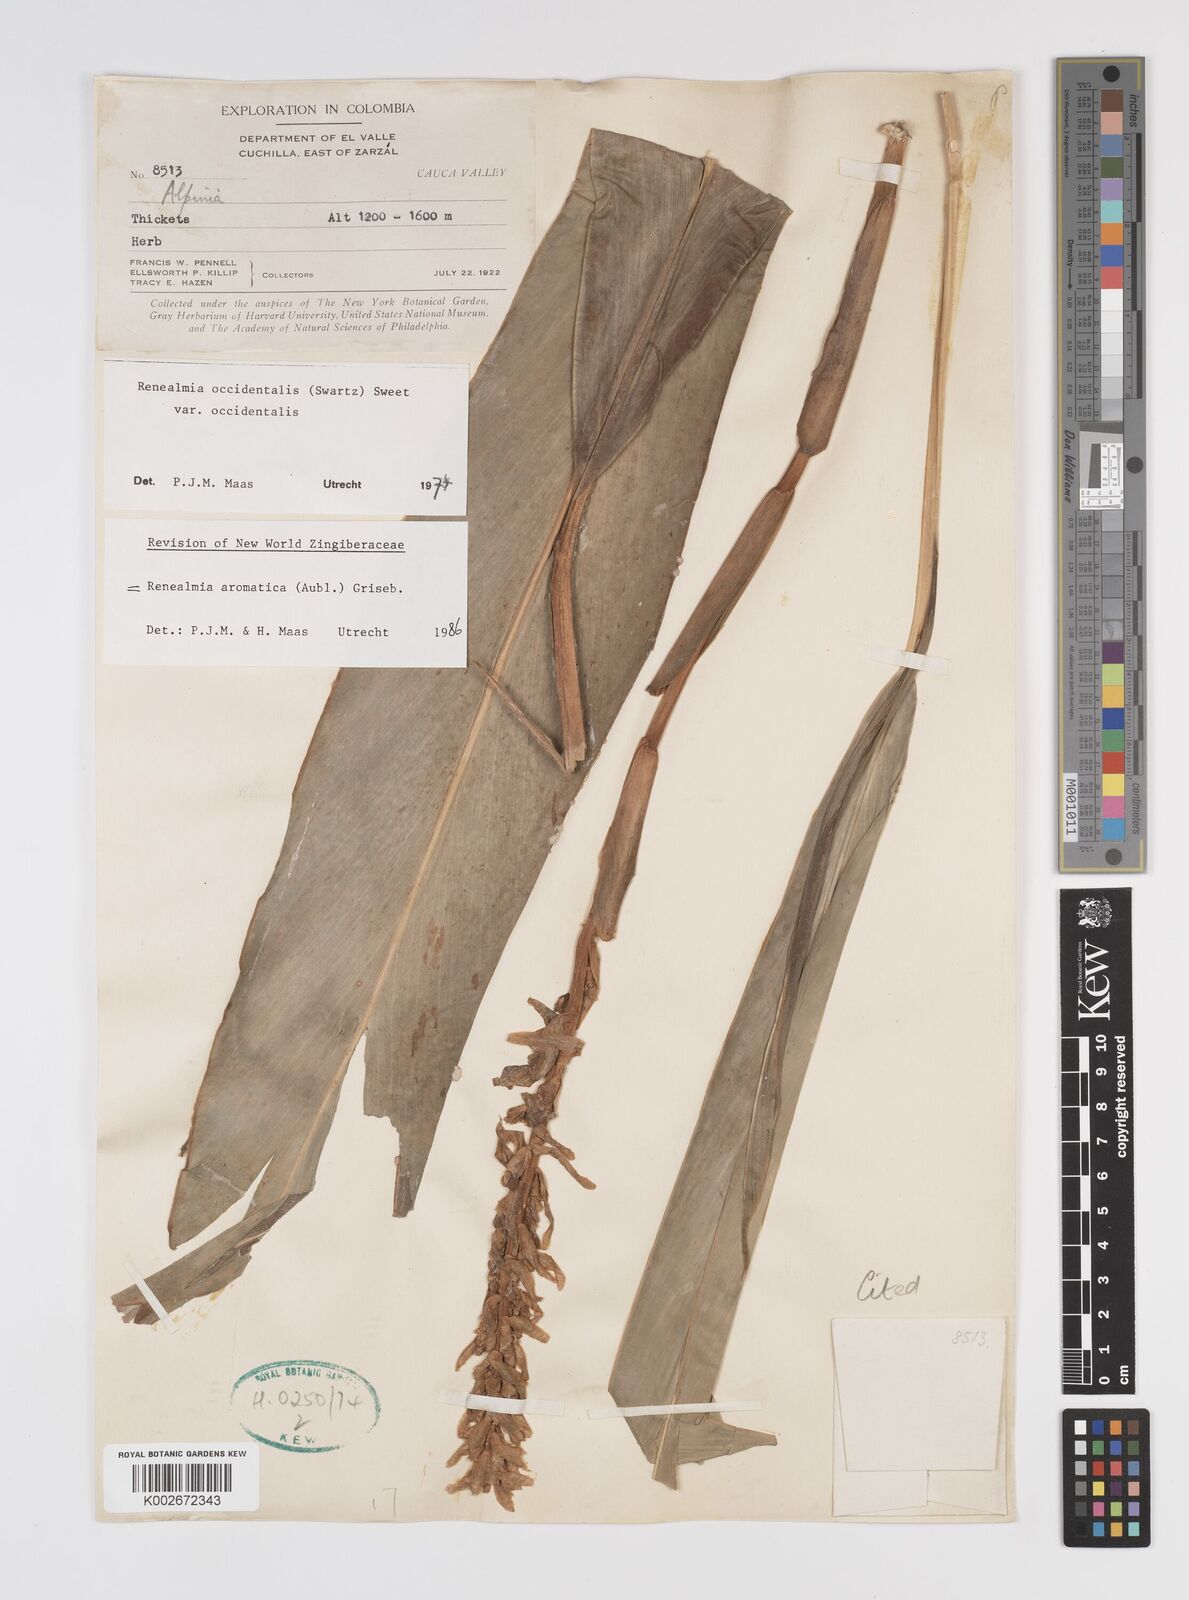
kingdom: Plantae
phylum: Tracheophyta
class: Liliopsida
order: Zingiberales
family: Zingiberaceae
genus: Renealmia
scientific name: Renealmia aromatica
